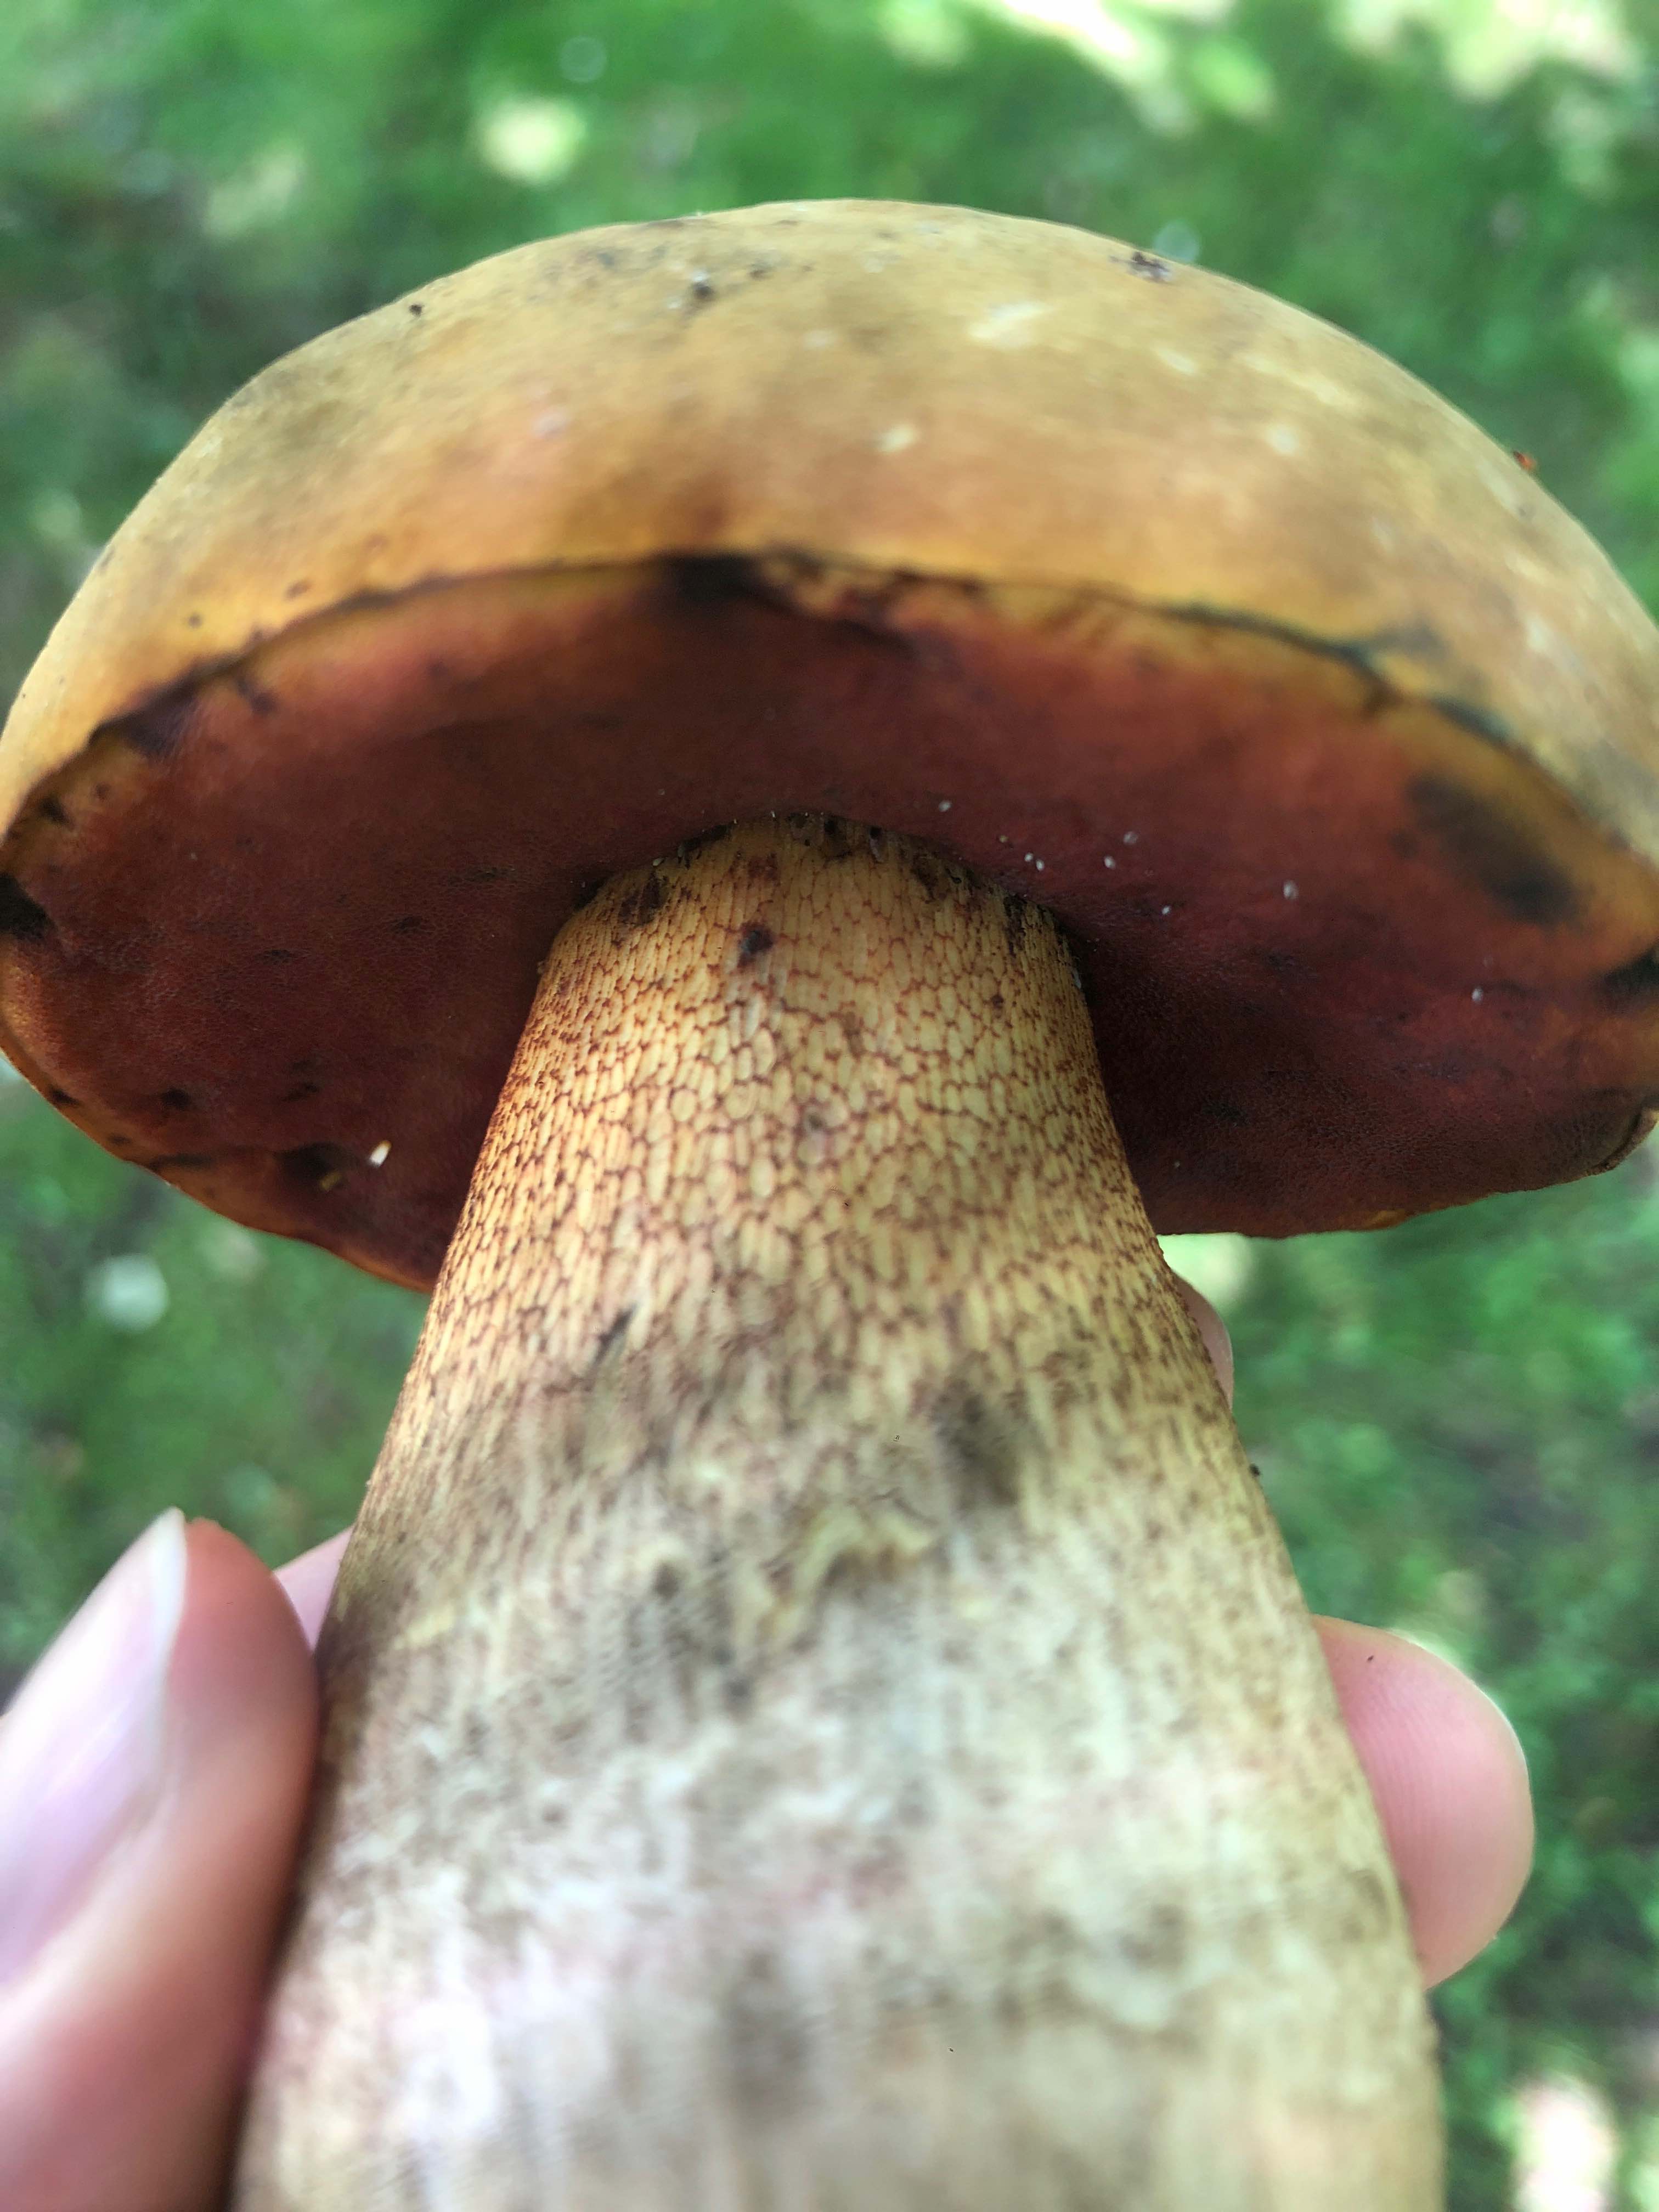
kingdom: Fungi
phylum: Basidiomycota
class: Agaricomycetes
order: Boletales
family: Boletaceae
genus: Suillellus
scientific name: Suillellus luridus
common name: netstokket indigorørhat
